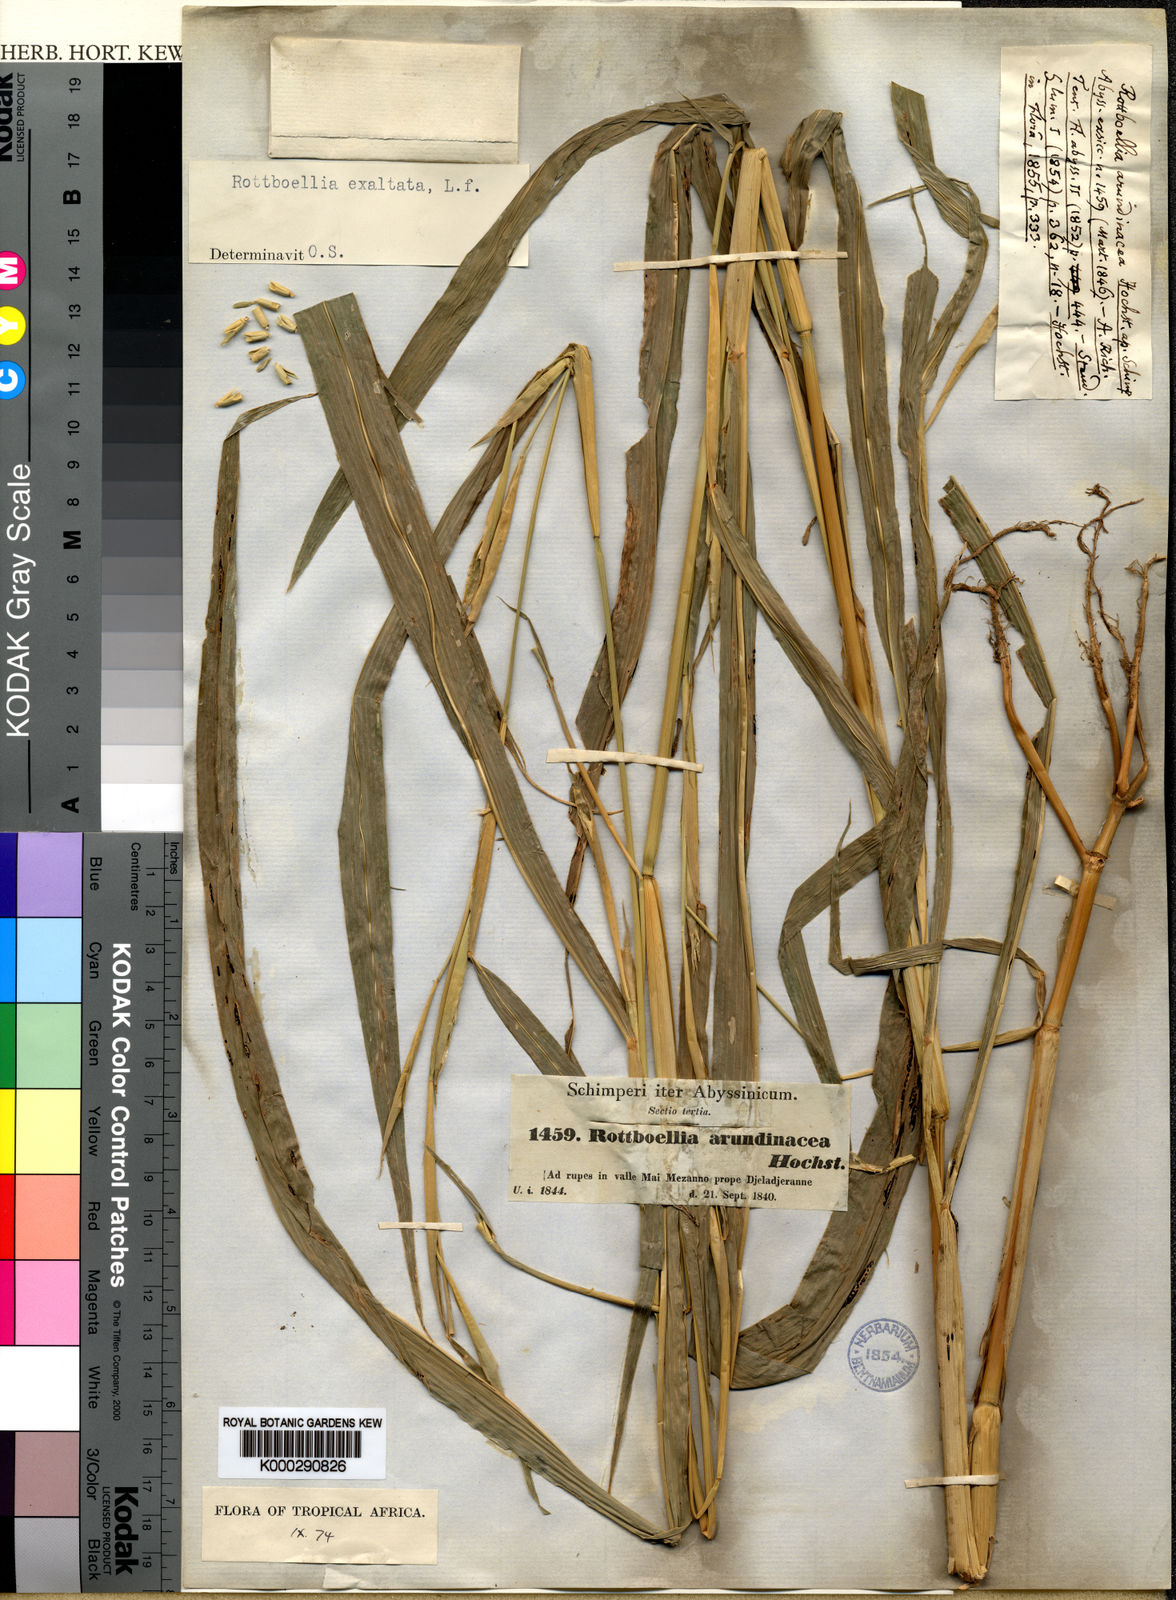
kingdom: Plantae
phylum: Tracheophyta
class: Liliopsida
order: Poales
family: Poaceae
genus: Rottboellia
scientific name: Rottboellia cochinchinensis
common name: Itchgrass
